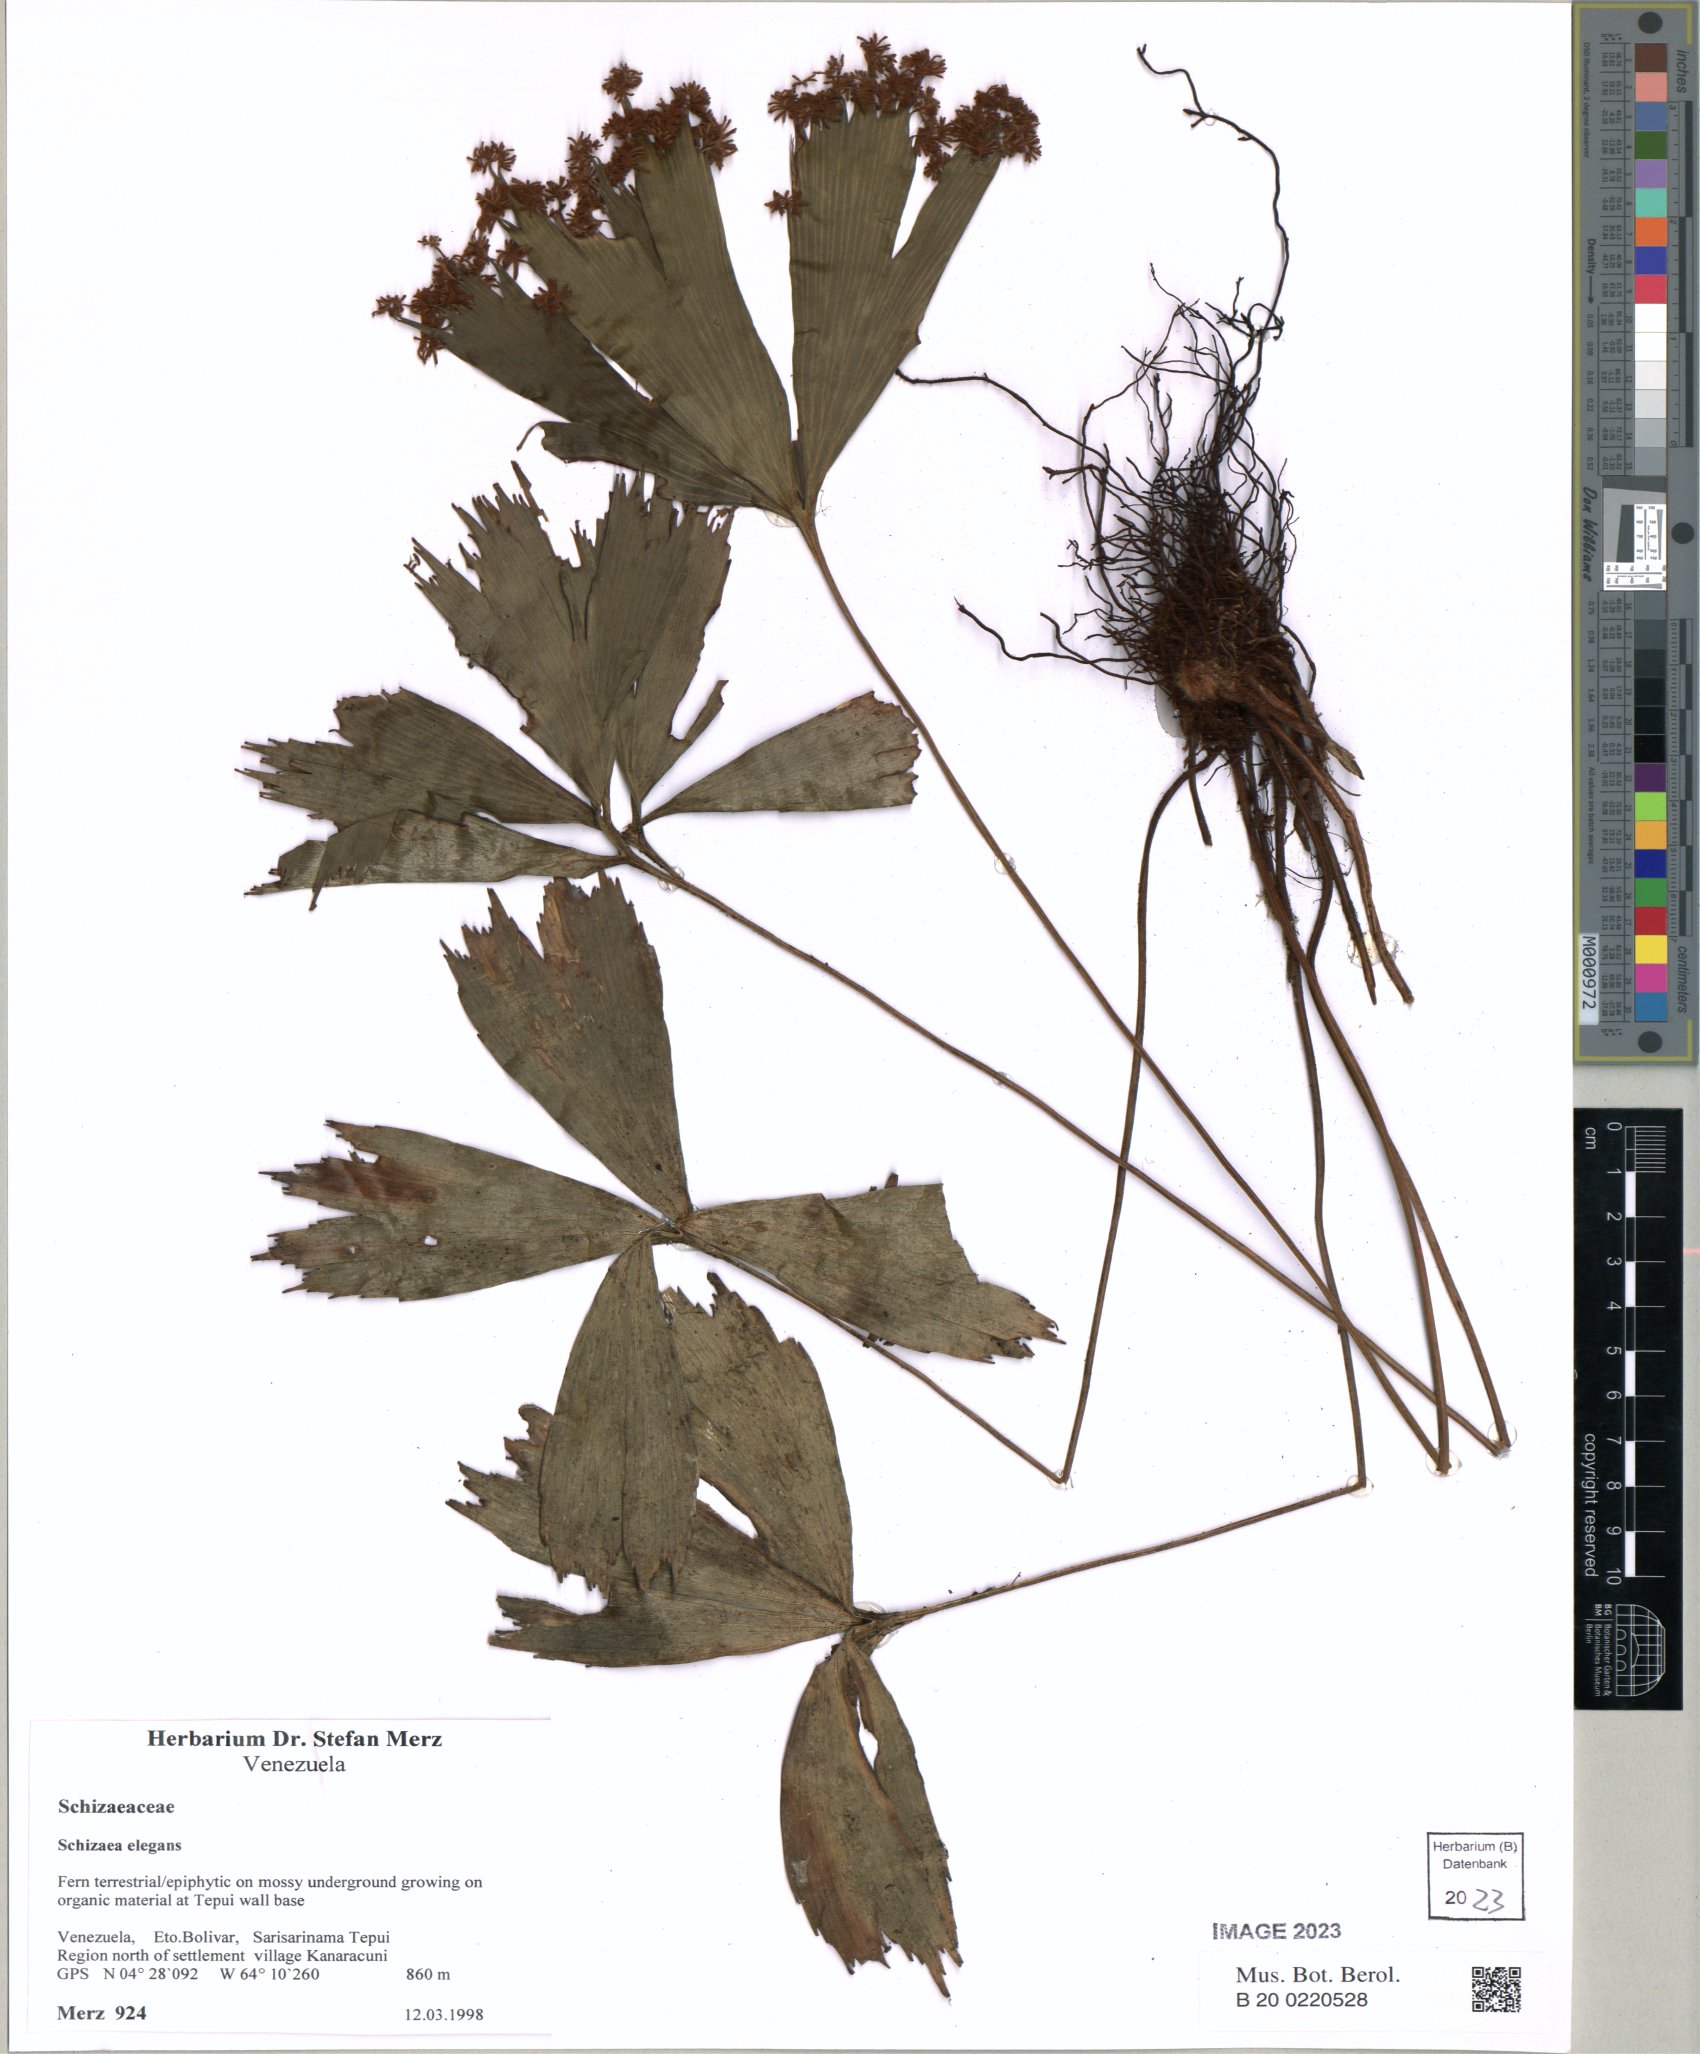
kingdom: Plantae
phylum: Tracheophyta
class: Polypodiopsida
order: Schizaeales
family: Schizaeaceae
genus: Schizaea
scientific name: Schizaea elegans
